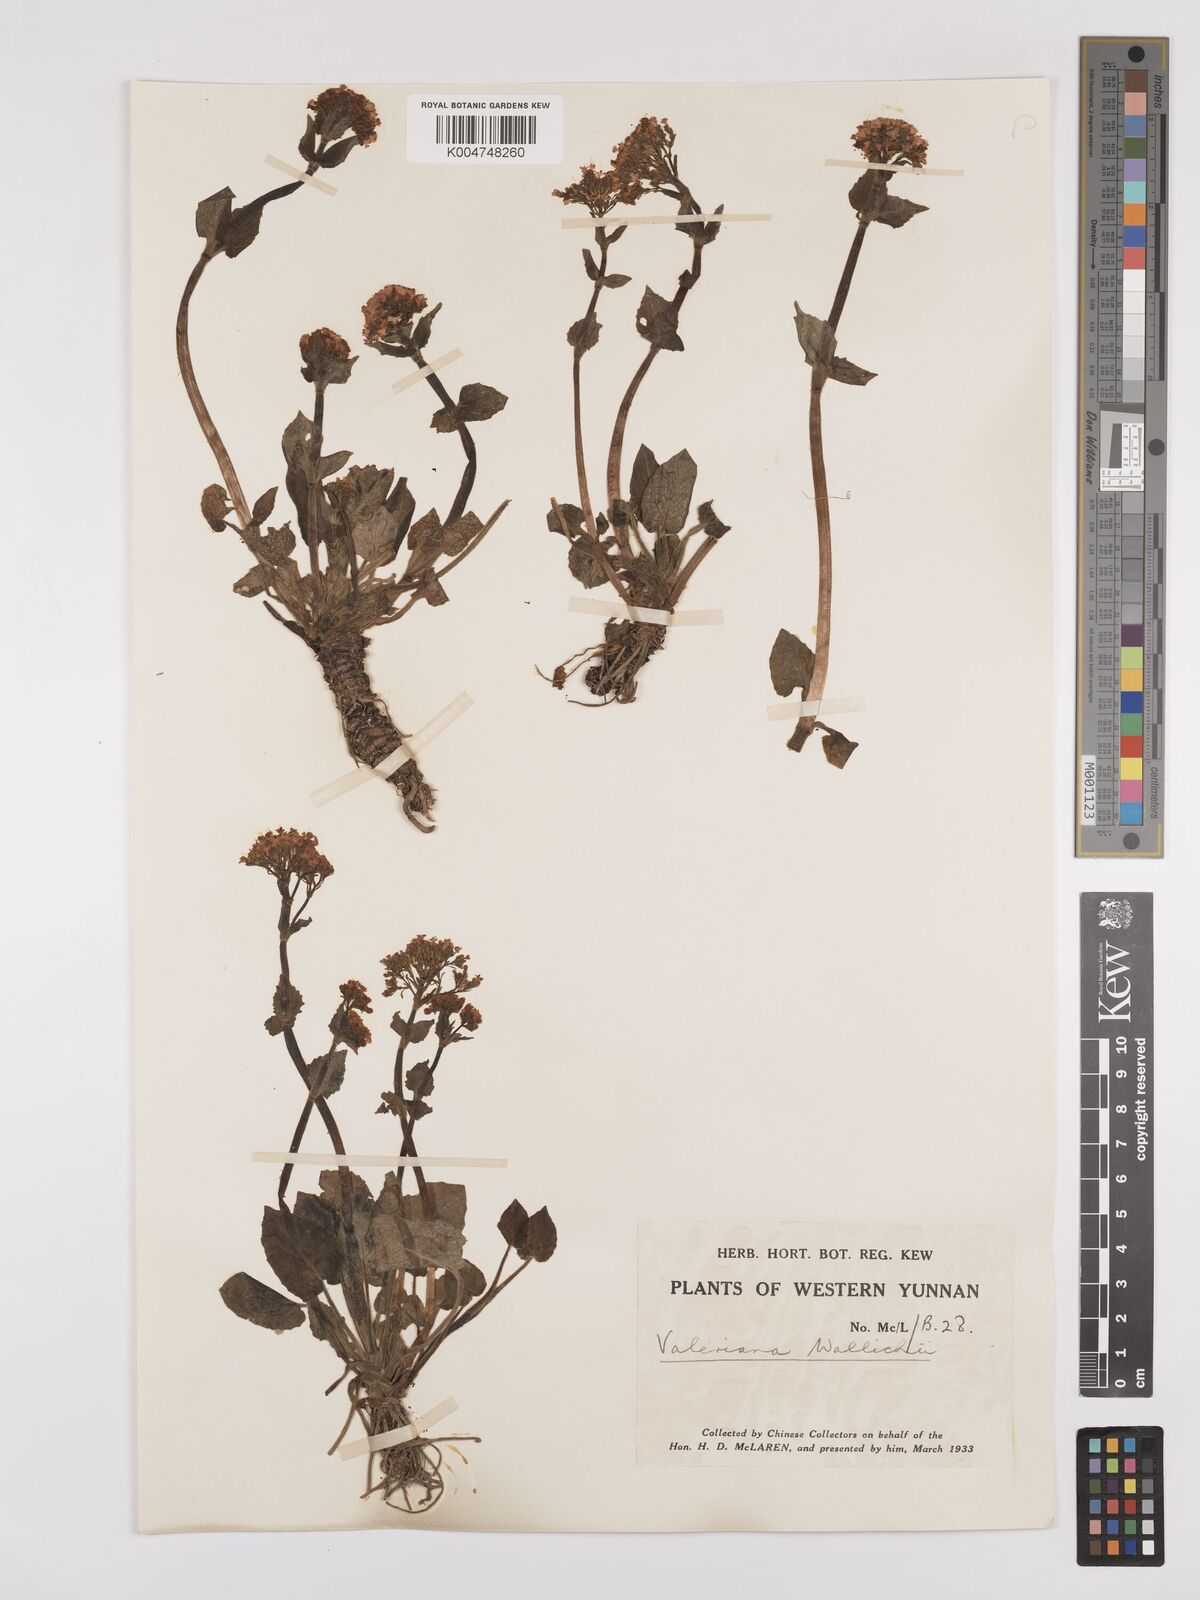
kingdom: Plantae
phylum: Tracheophyta
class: Magnoliopsida
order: Dipsacales
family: Caprifoliaceae
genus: Valeriana
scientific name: Valeriana
